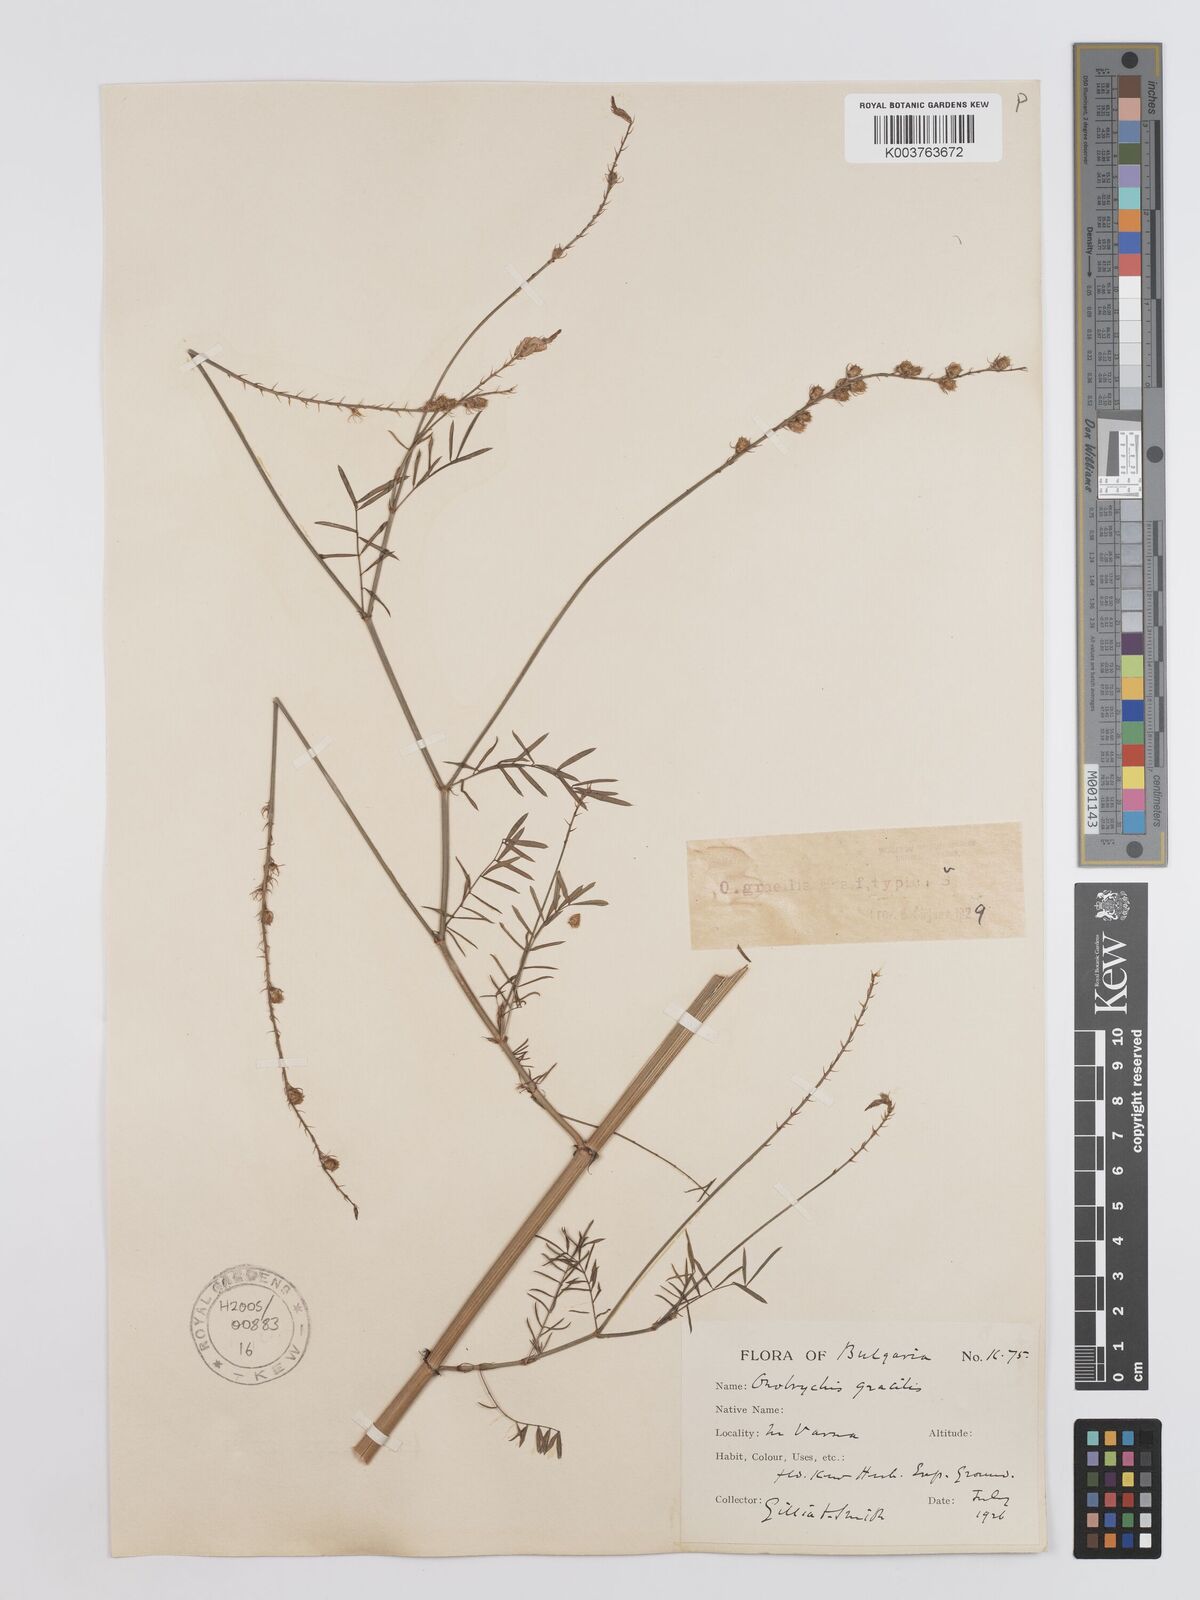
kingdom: Plantae
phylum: Tracheophyta
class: Magnoliopsida
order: Fabales
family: Fabaceae
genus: Onobrychis
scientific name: Onobrychis gracilis
